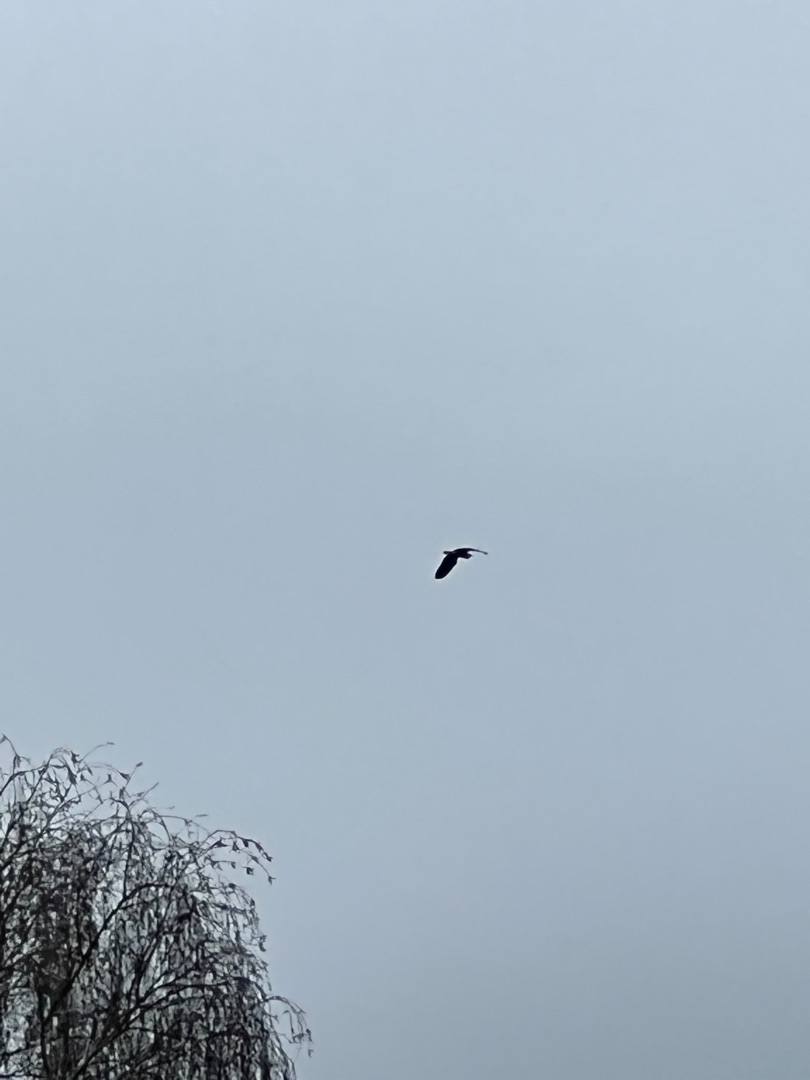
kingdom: Animalia
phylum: Chordata
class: Aves
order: Pelecaniformes
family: Ardeidae
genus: Ardea
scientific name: Ardea cinerea
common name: Fiskehejre
